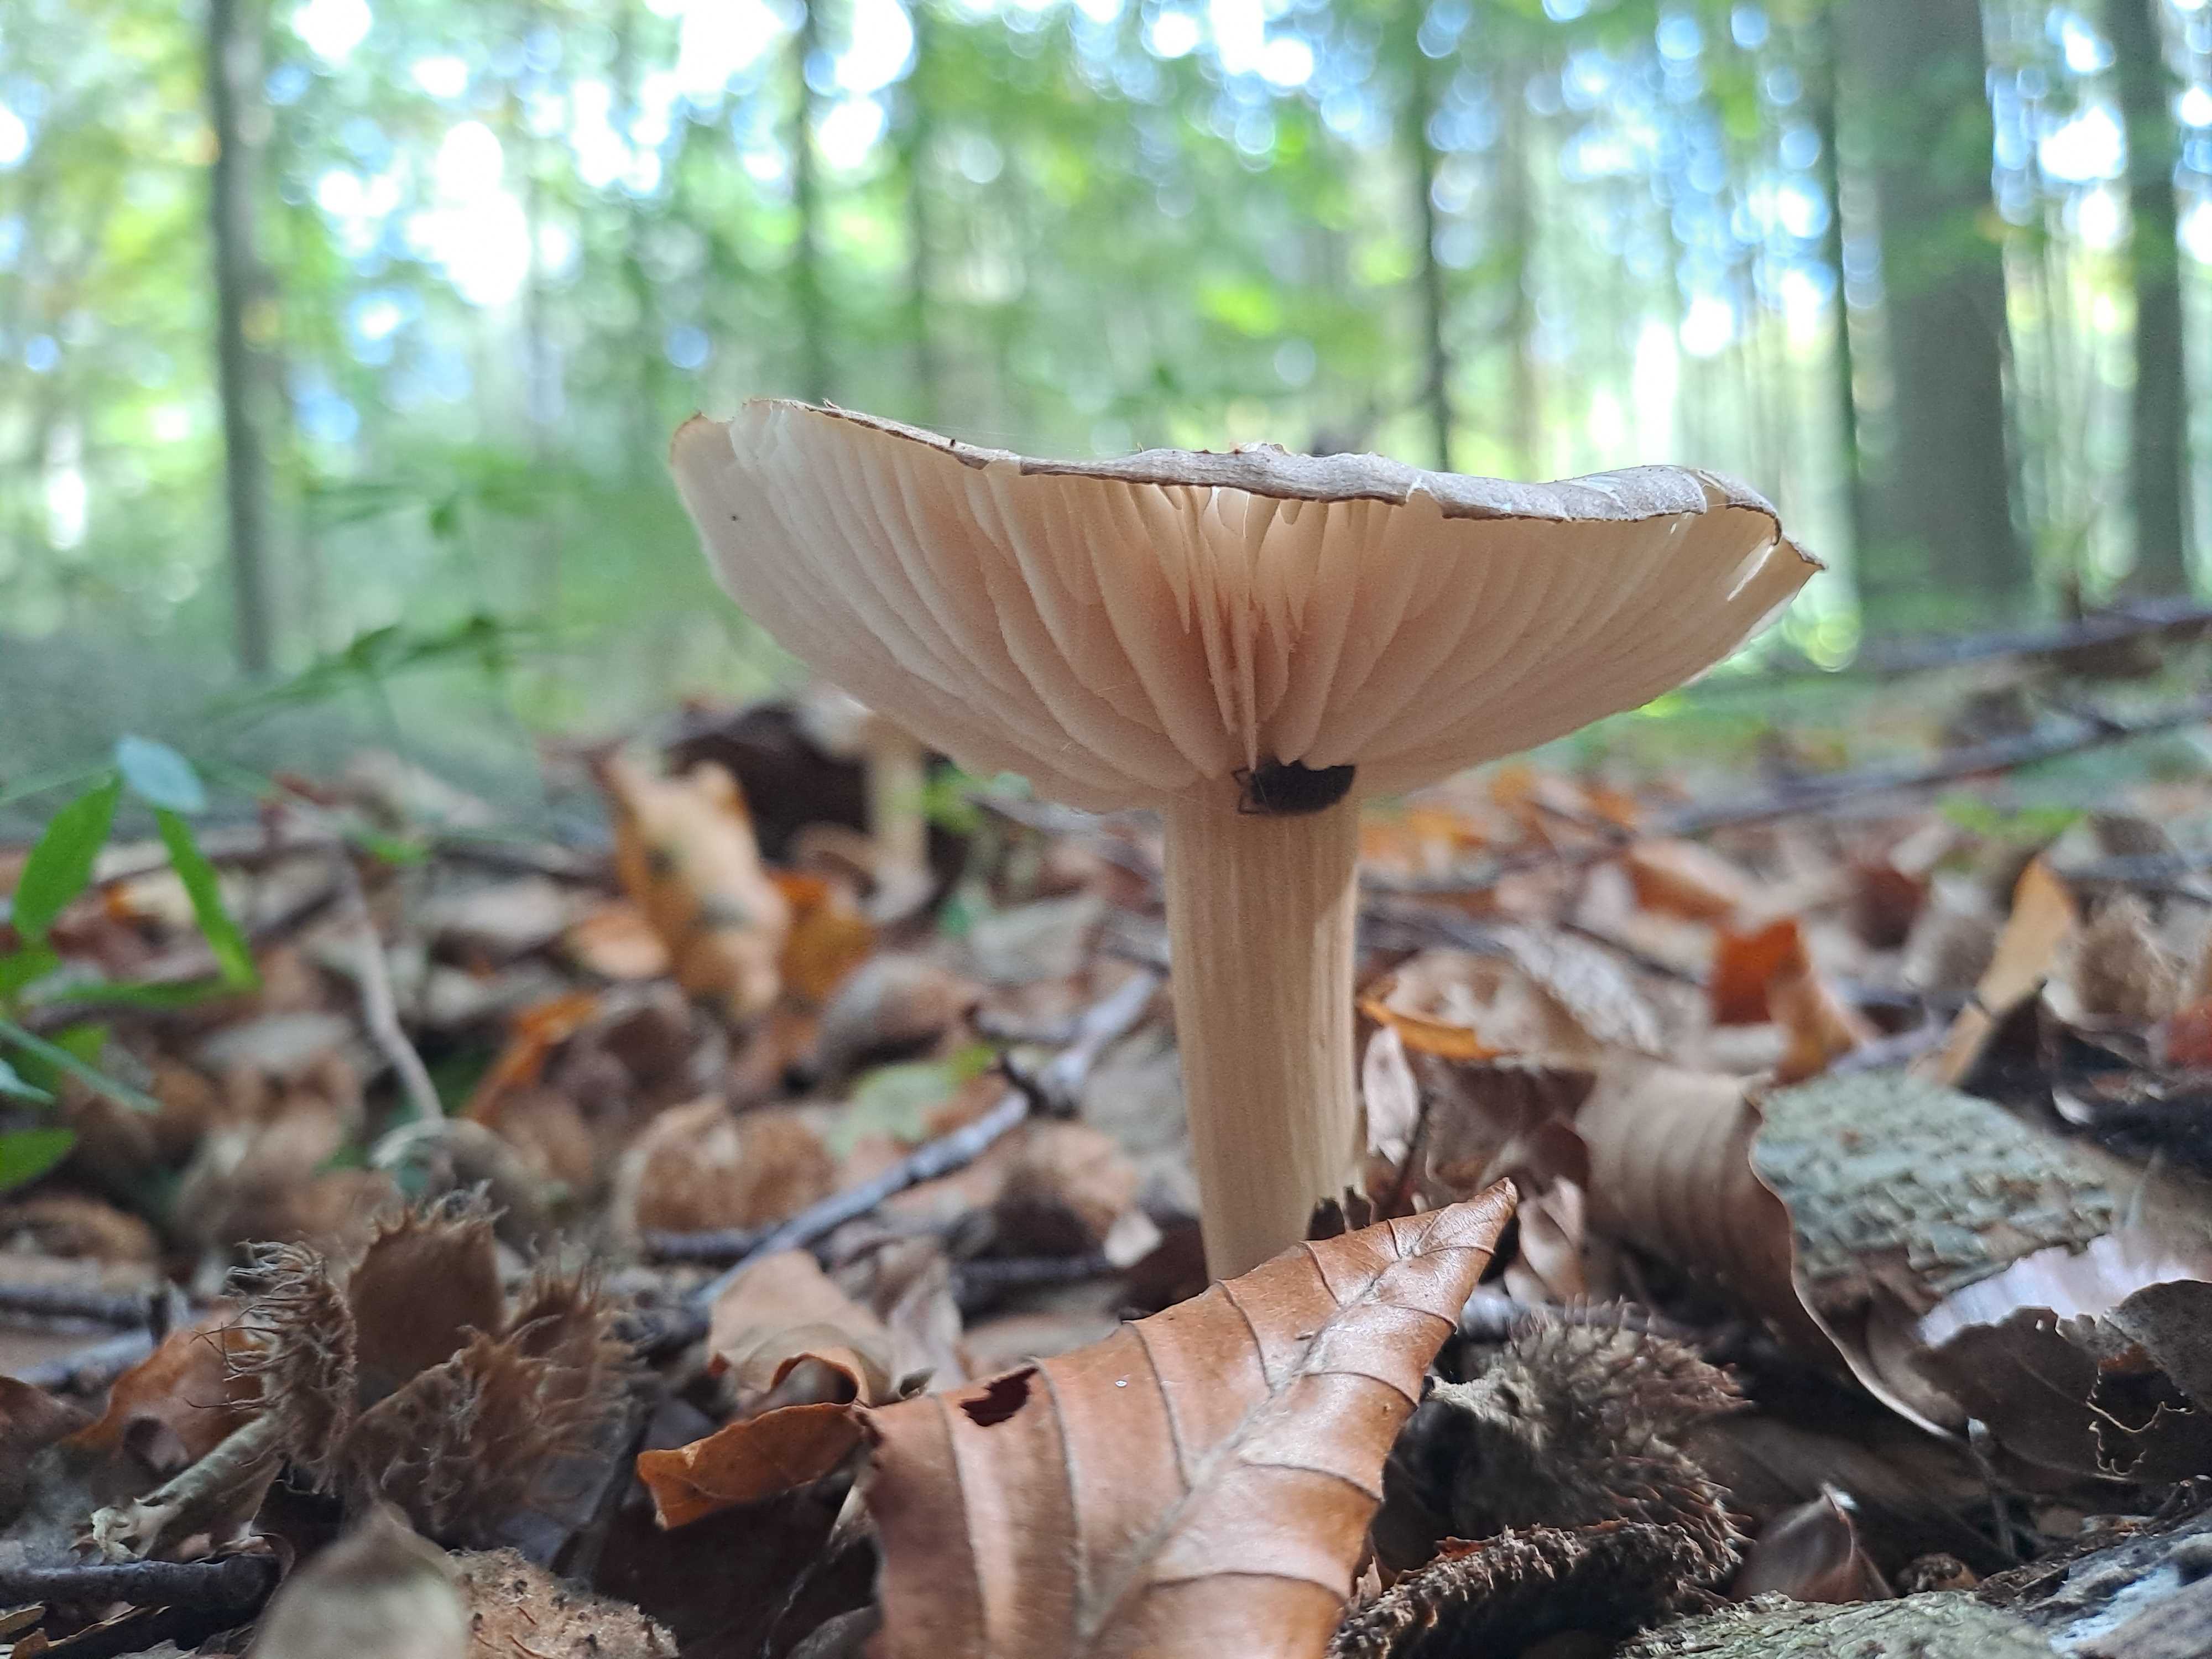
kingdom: Fungi
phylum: Basidiomycota
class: Agaricomycetes
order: Agaricales
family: Tricholomataceae
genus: Megacollybia
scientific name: Megacollybia platyphylla
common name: bredbladet væbnerhat
